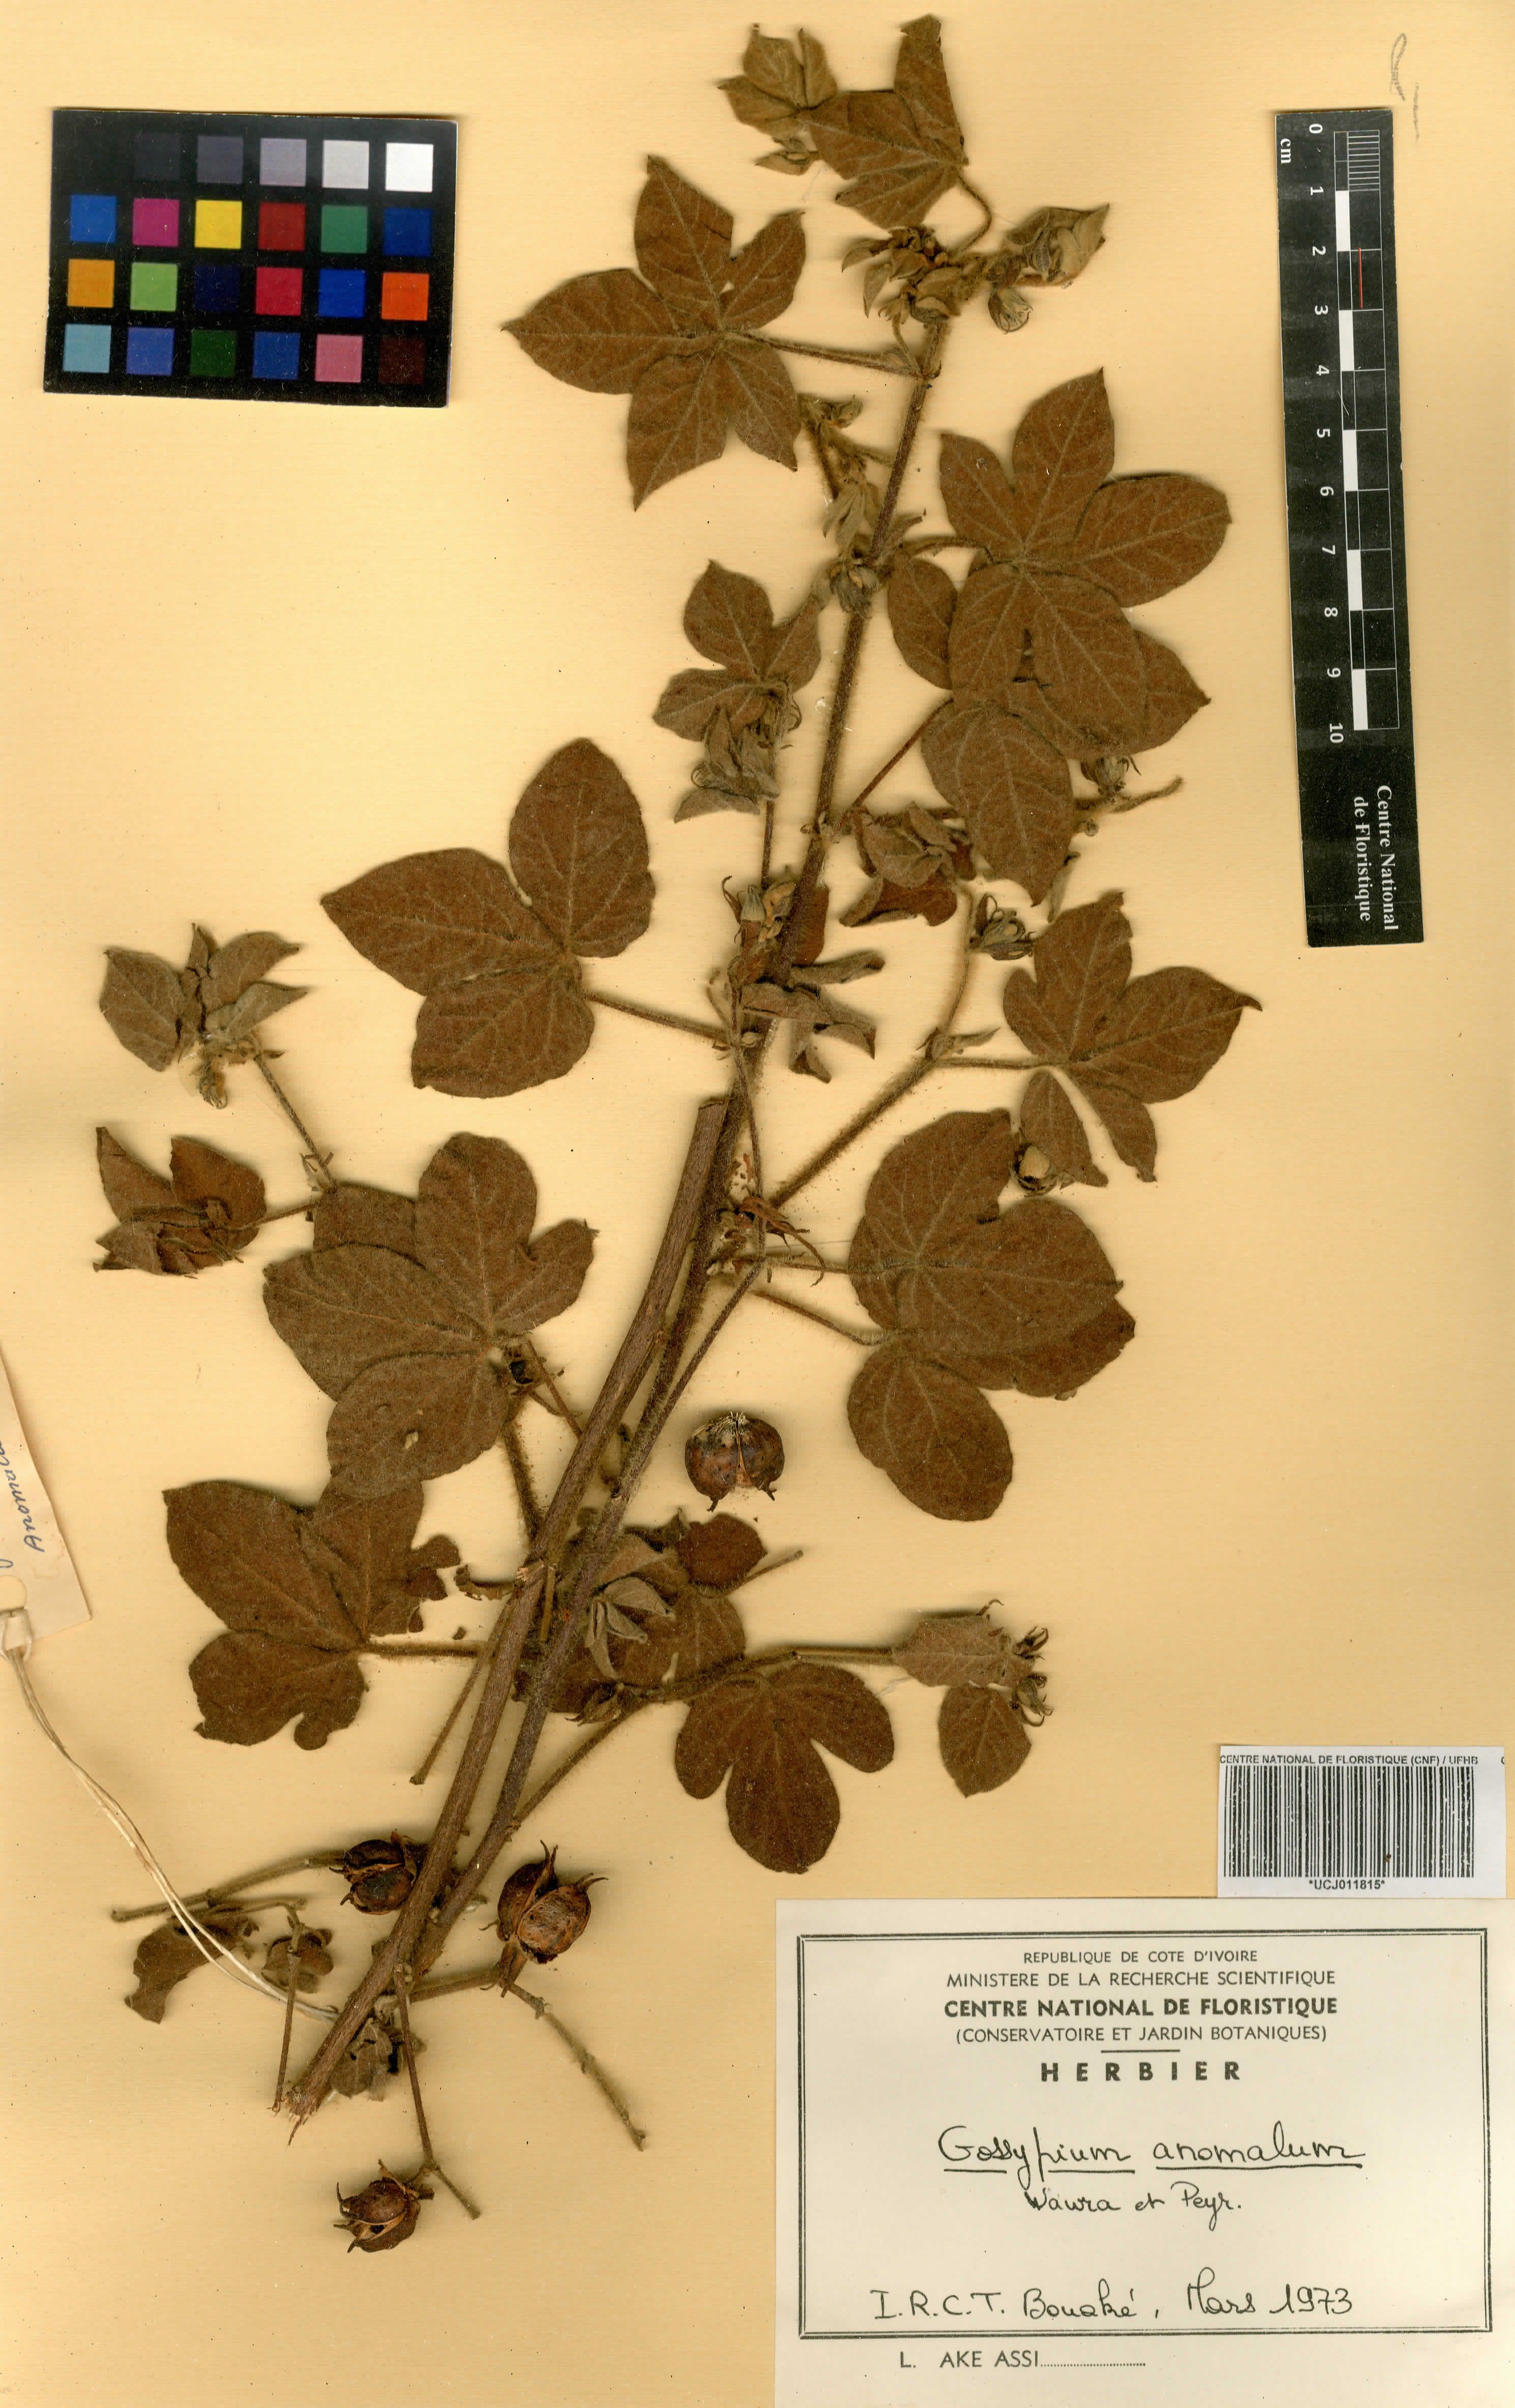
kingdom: Plantae
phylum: Tracheophyta
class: Magnoliopsida
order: Malvales
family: Malvaceae
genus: Gossypium
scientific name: Gossypium anomalum
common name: African wild cotton
